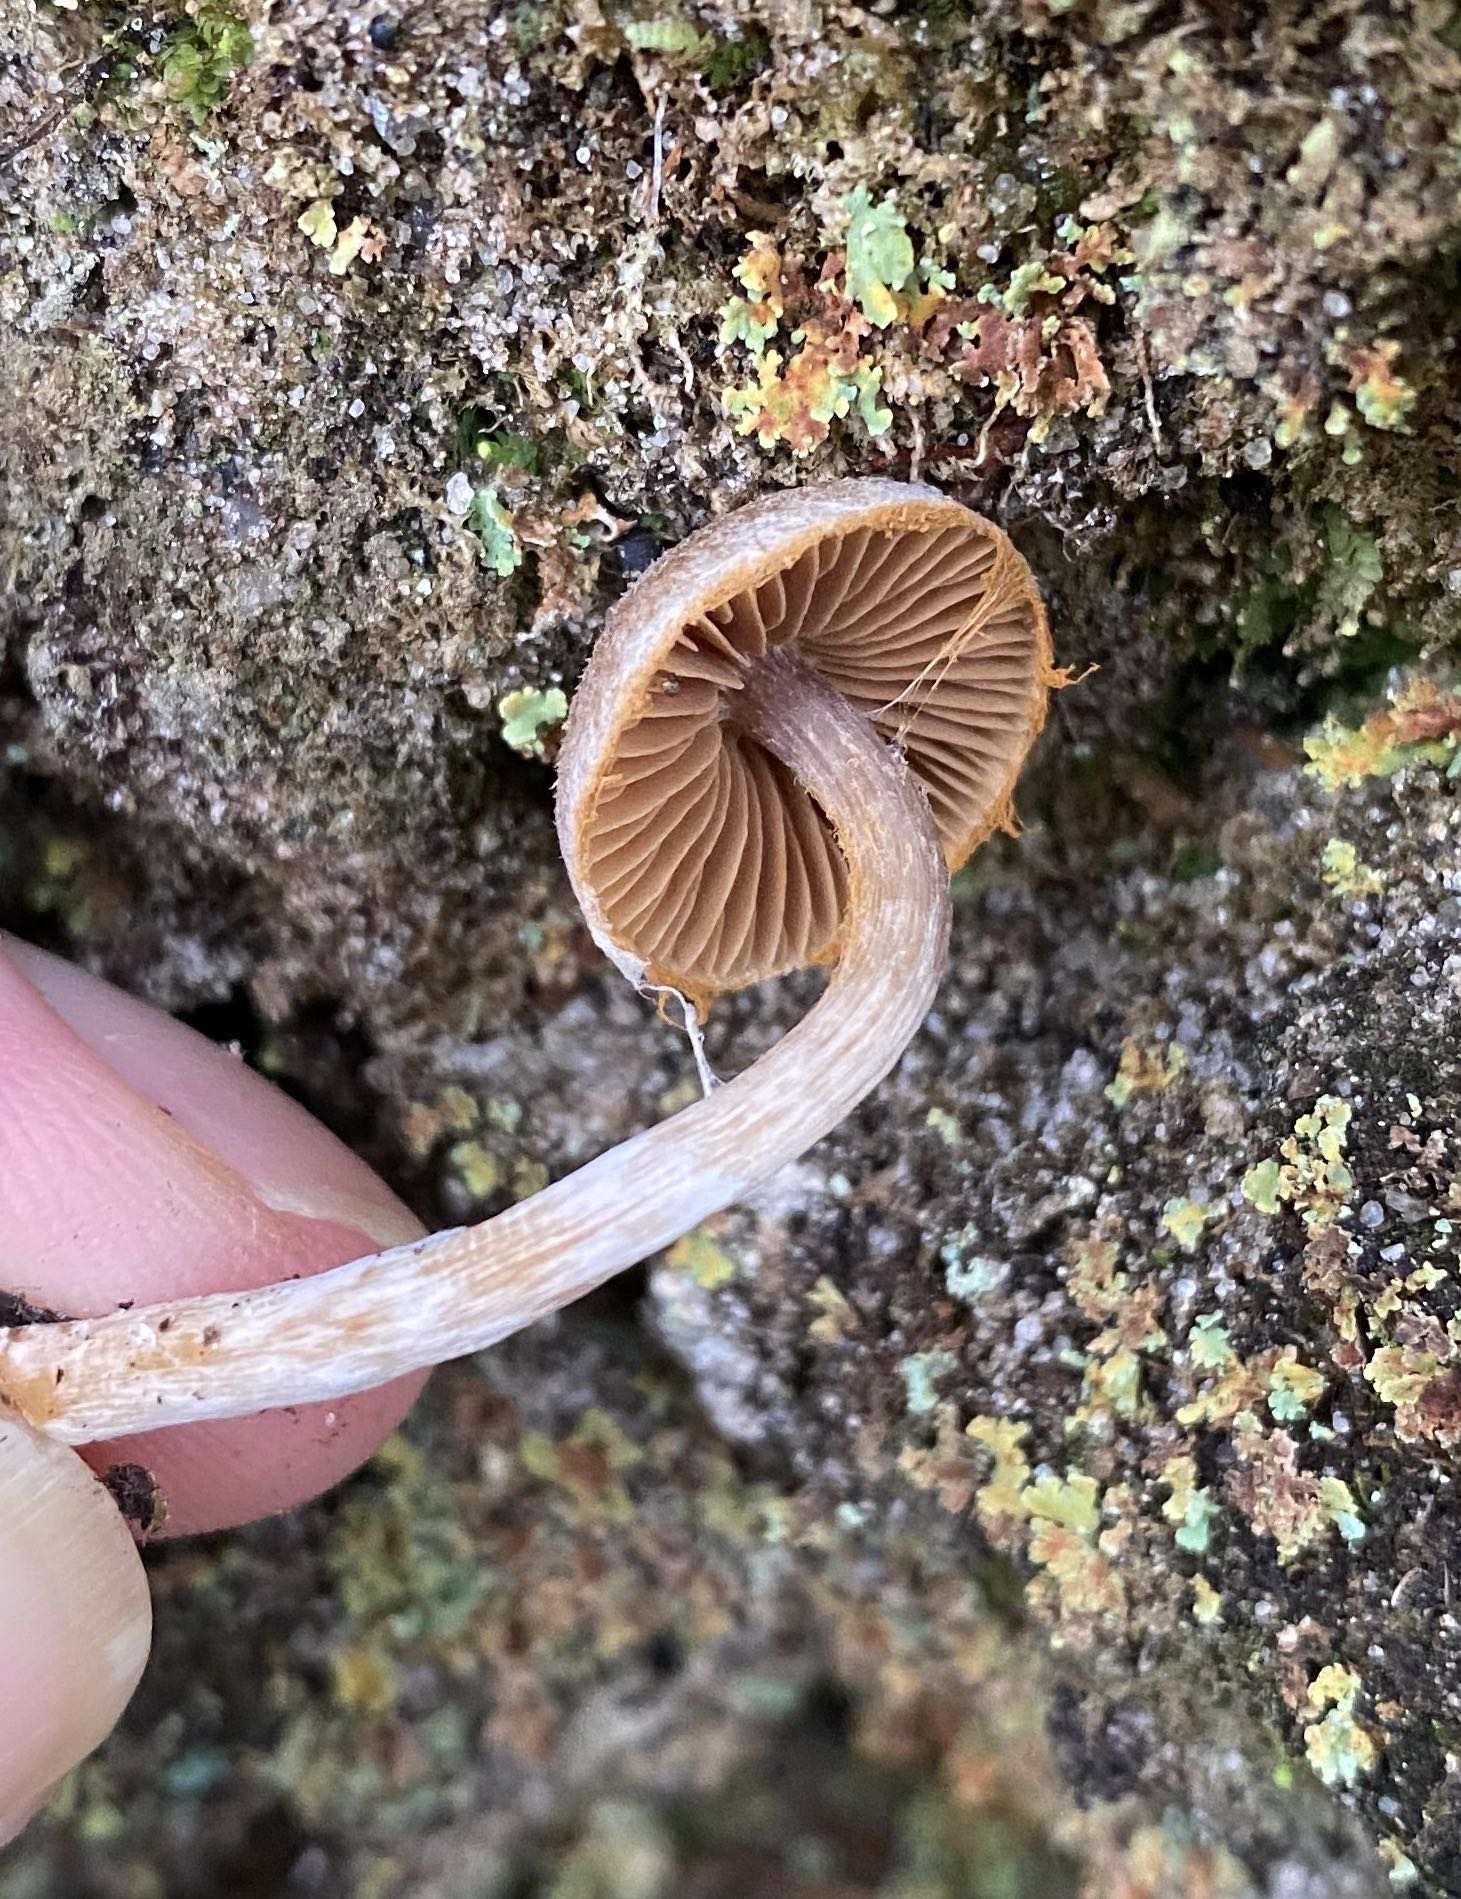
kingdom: Fungi
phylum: Basidiomycota
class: Agaricomycetes
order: Agaricales
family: Cortinariaceae
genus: Cortinarius
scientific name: Cortinarius
